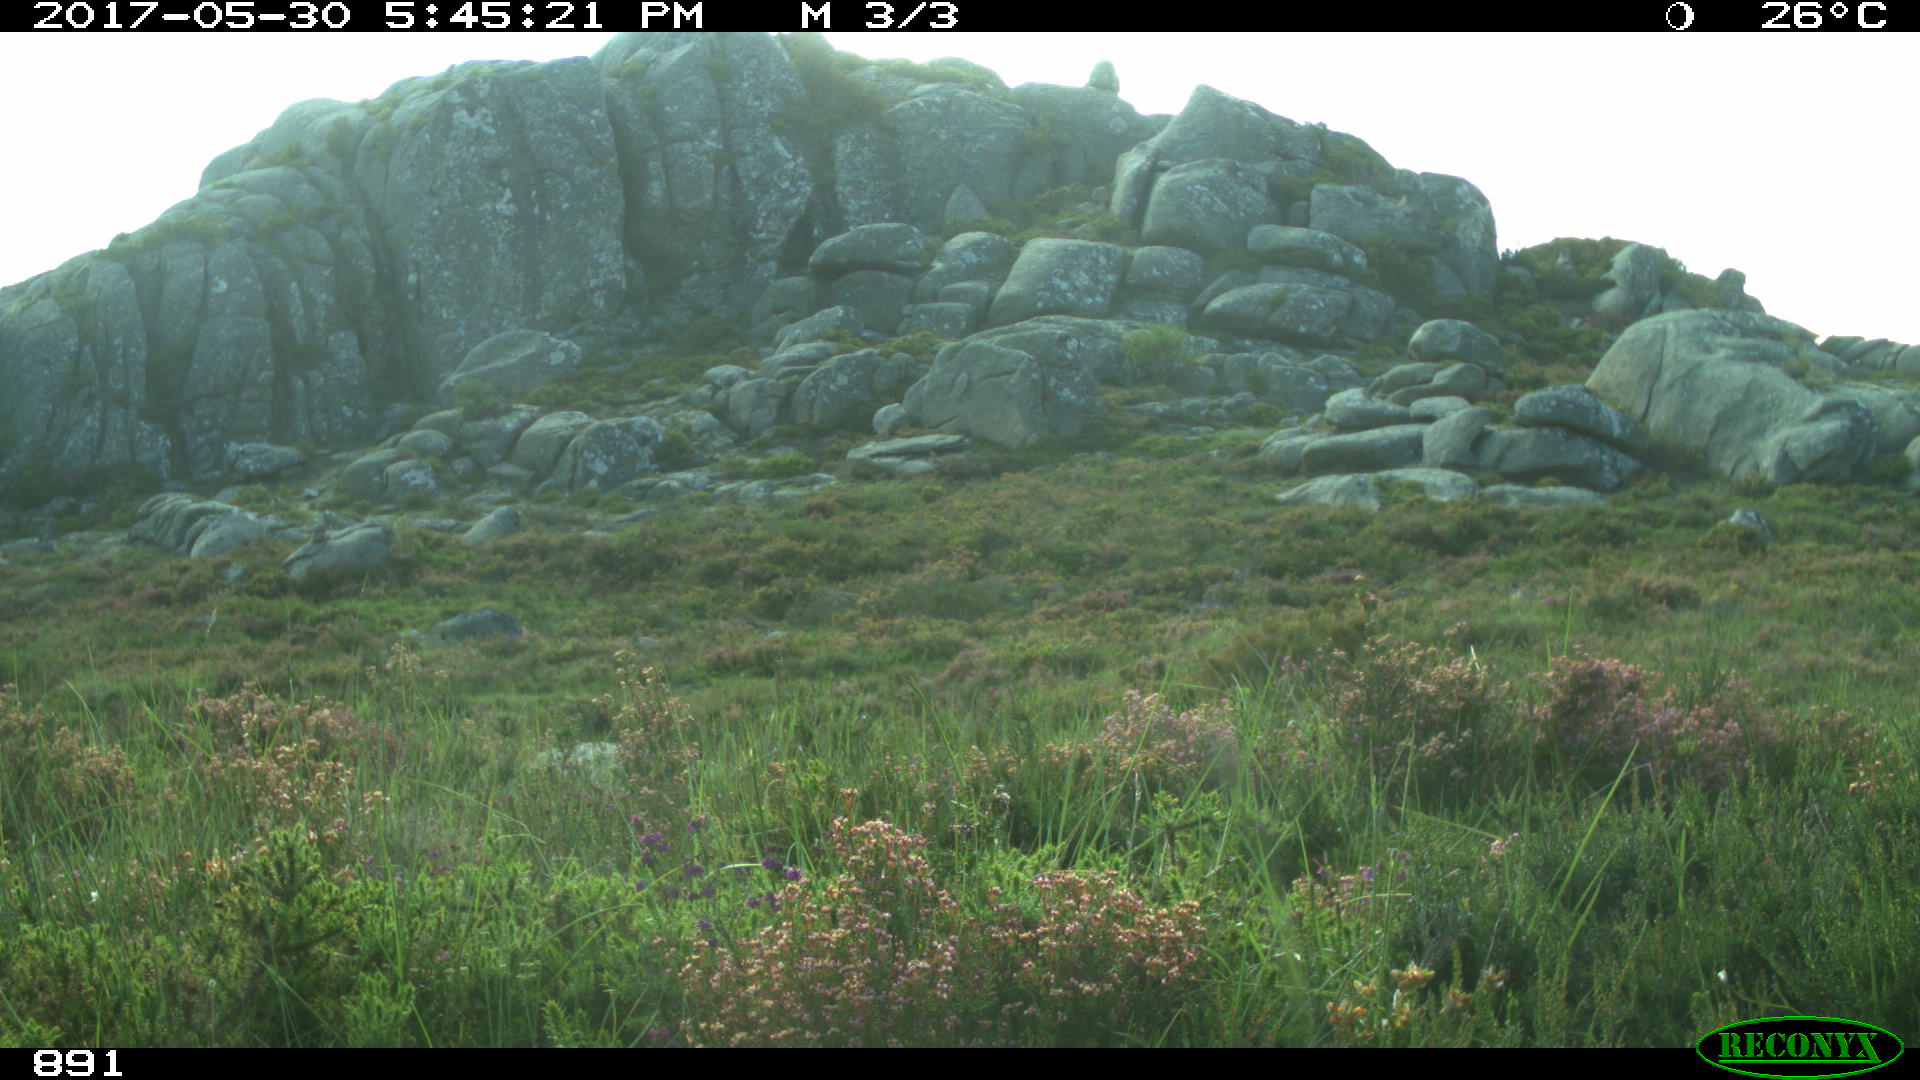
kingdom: Animalia
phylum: Chordata
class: Mammalia
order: Artiodactyla
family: Bovidae
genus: Bos
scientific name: Bos taurus
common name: Domesticated cattle
